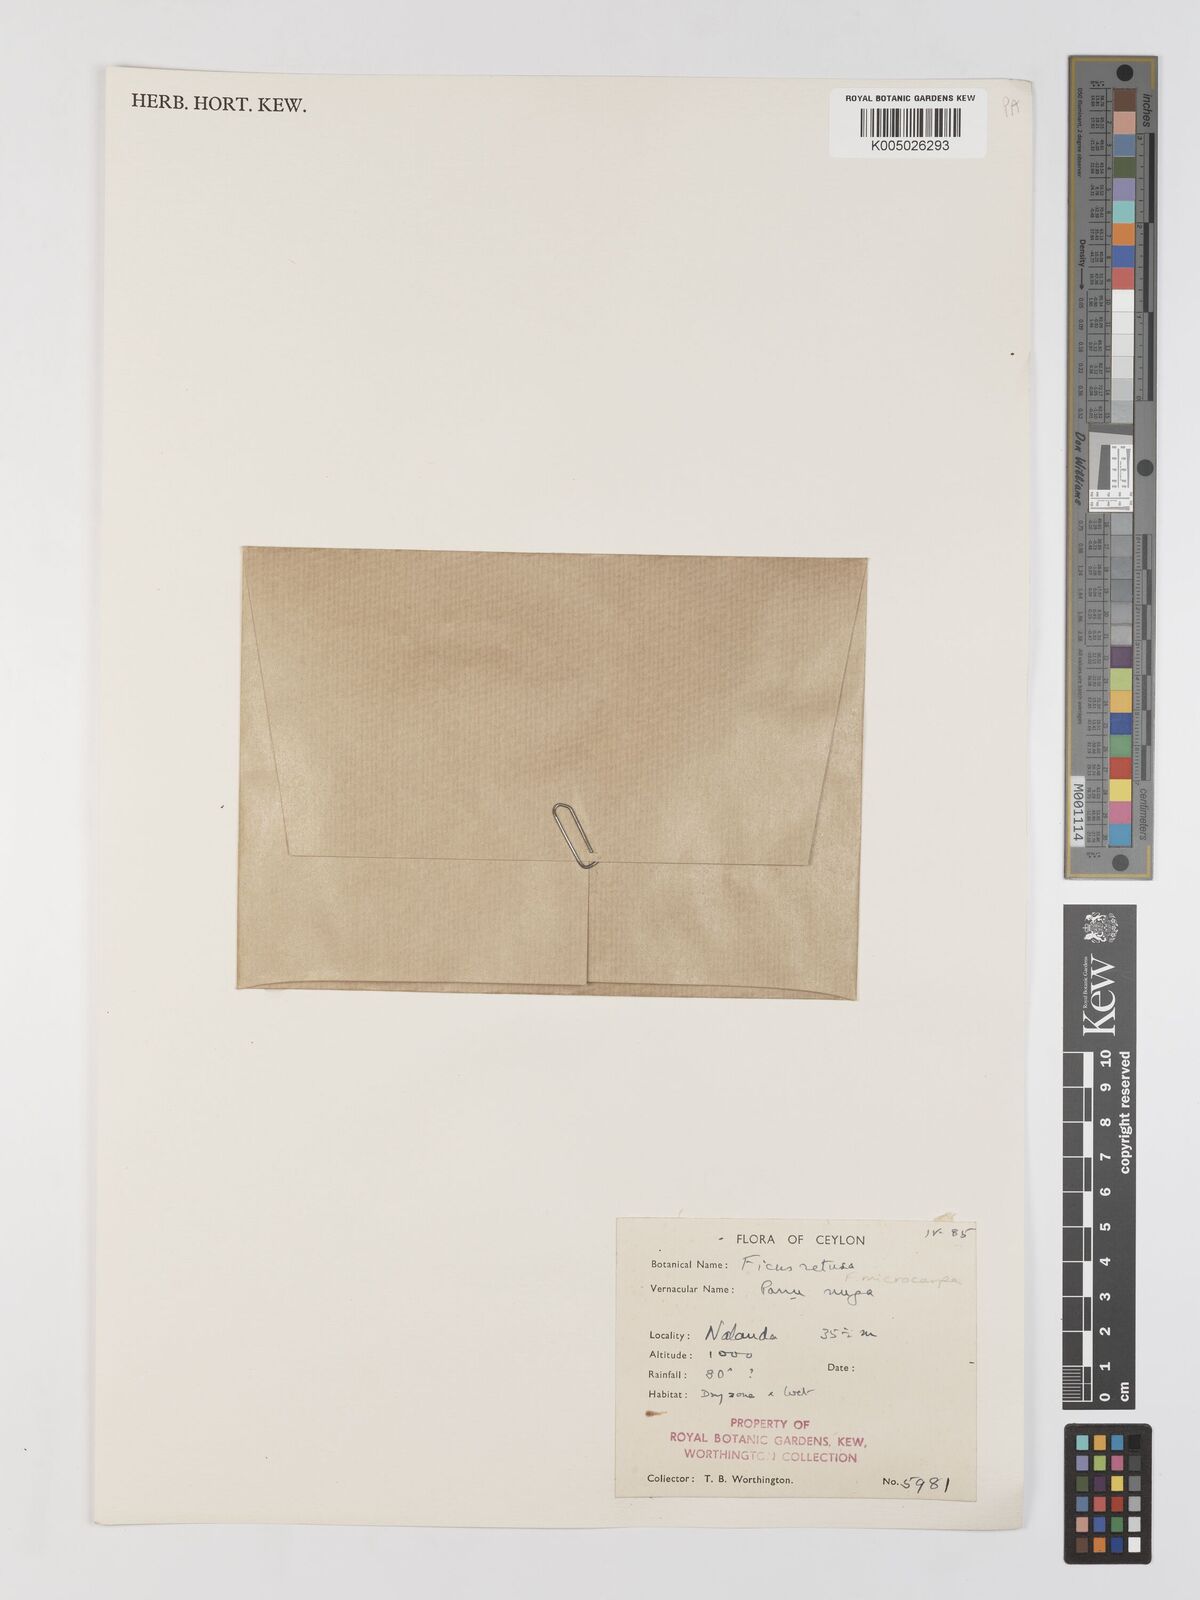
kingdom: Plantae
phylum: Tracheophyta
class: Magnoliopsida
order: Rosales
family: Moraceae
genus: Ficus
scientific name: Ficus
